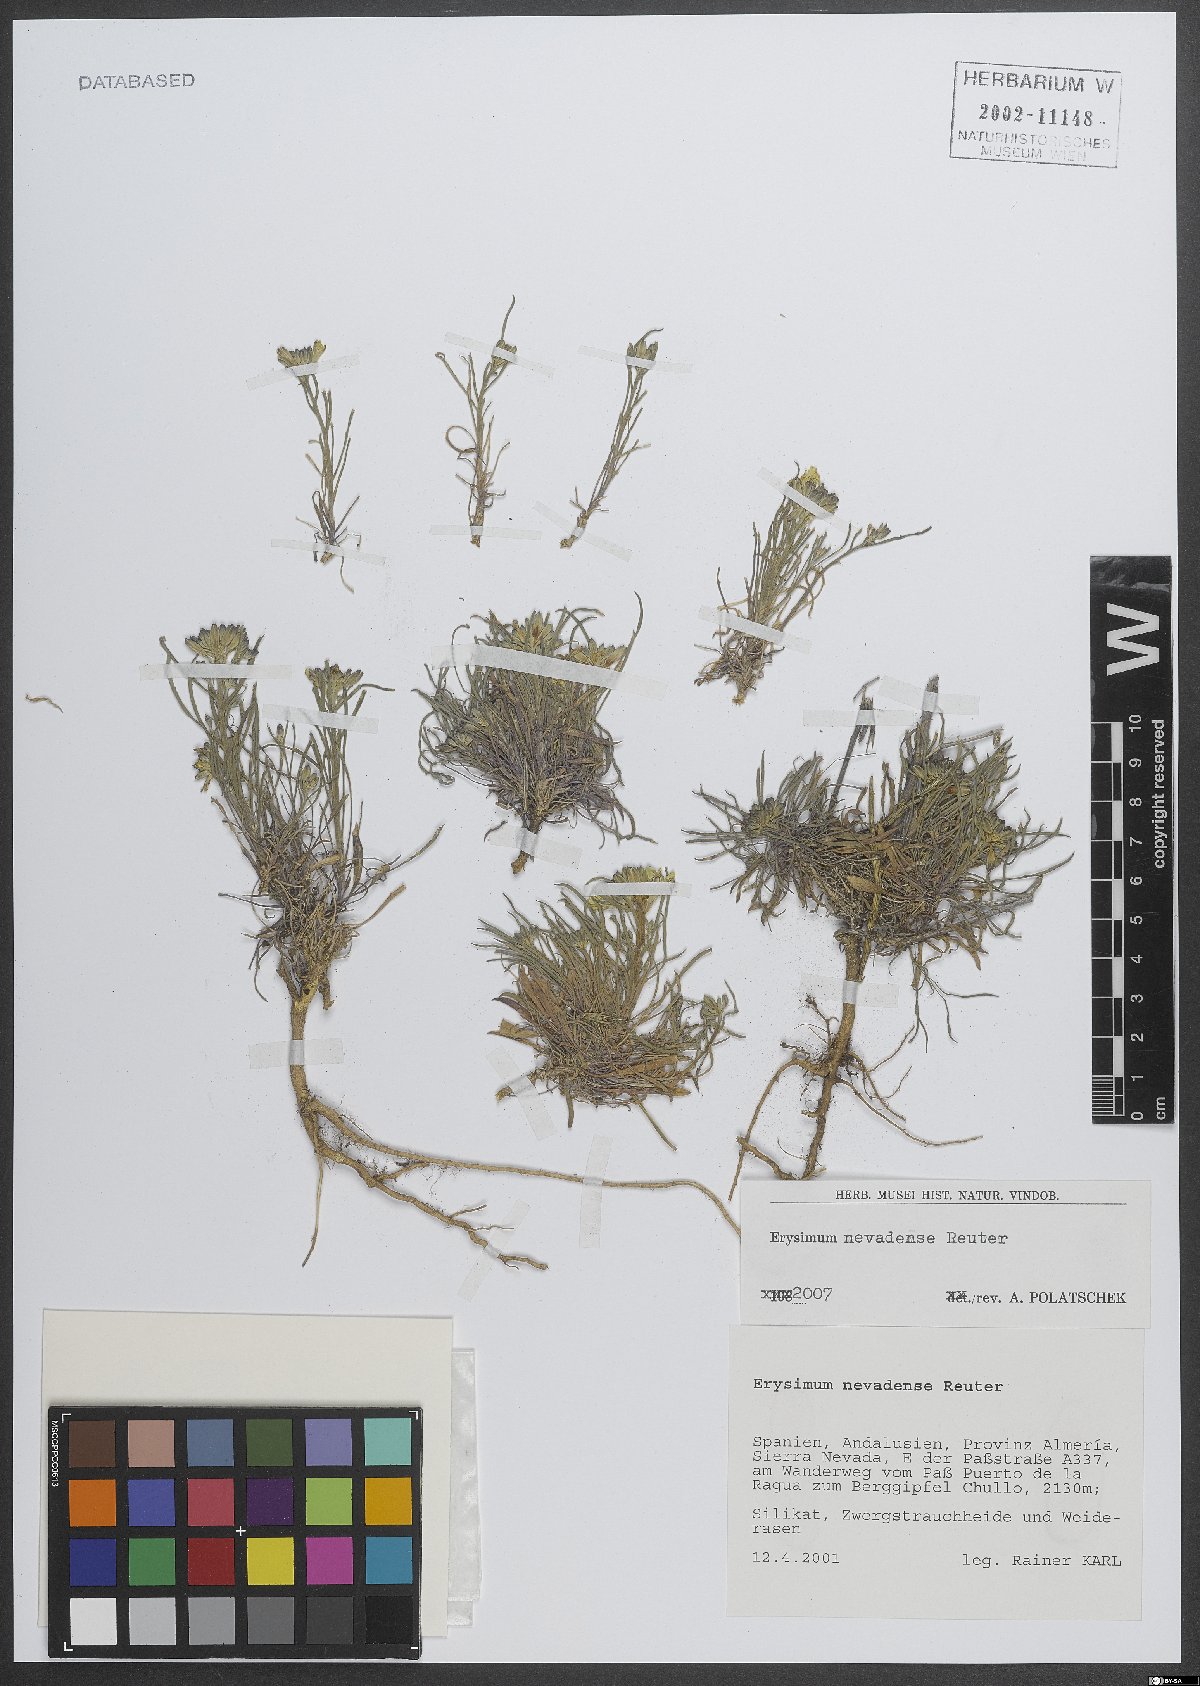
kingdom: Plantae
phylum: Tracheophyta
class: Magnoliopsida
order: Brassicales
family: Brassicaceae
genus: Erysimum
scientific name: Erysimum nevadense
